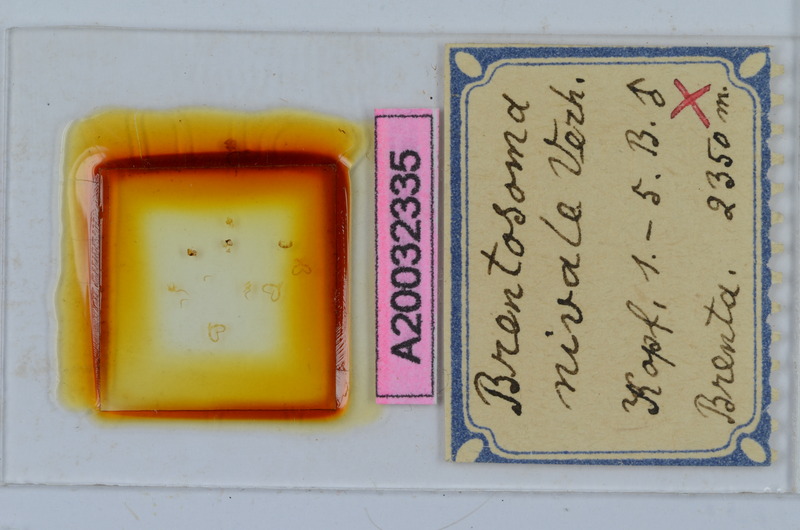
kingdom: Animalia
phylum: Arthropoda
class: Diplopoda
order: Chordeumatida
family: Craspedosomatidae
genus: Brentosoma
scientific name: Brentosoma nivale
